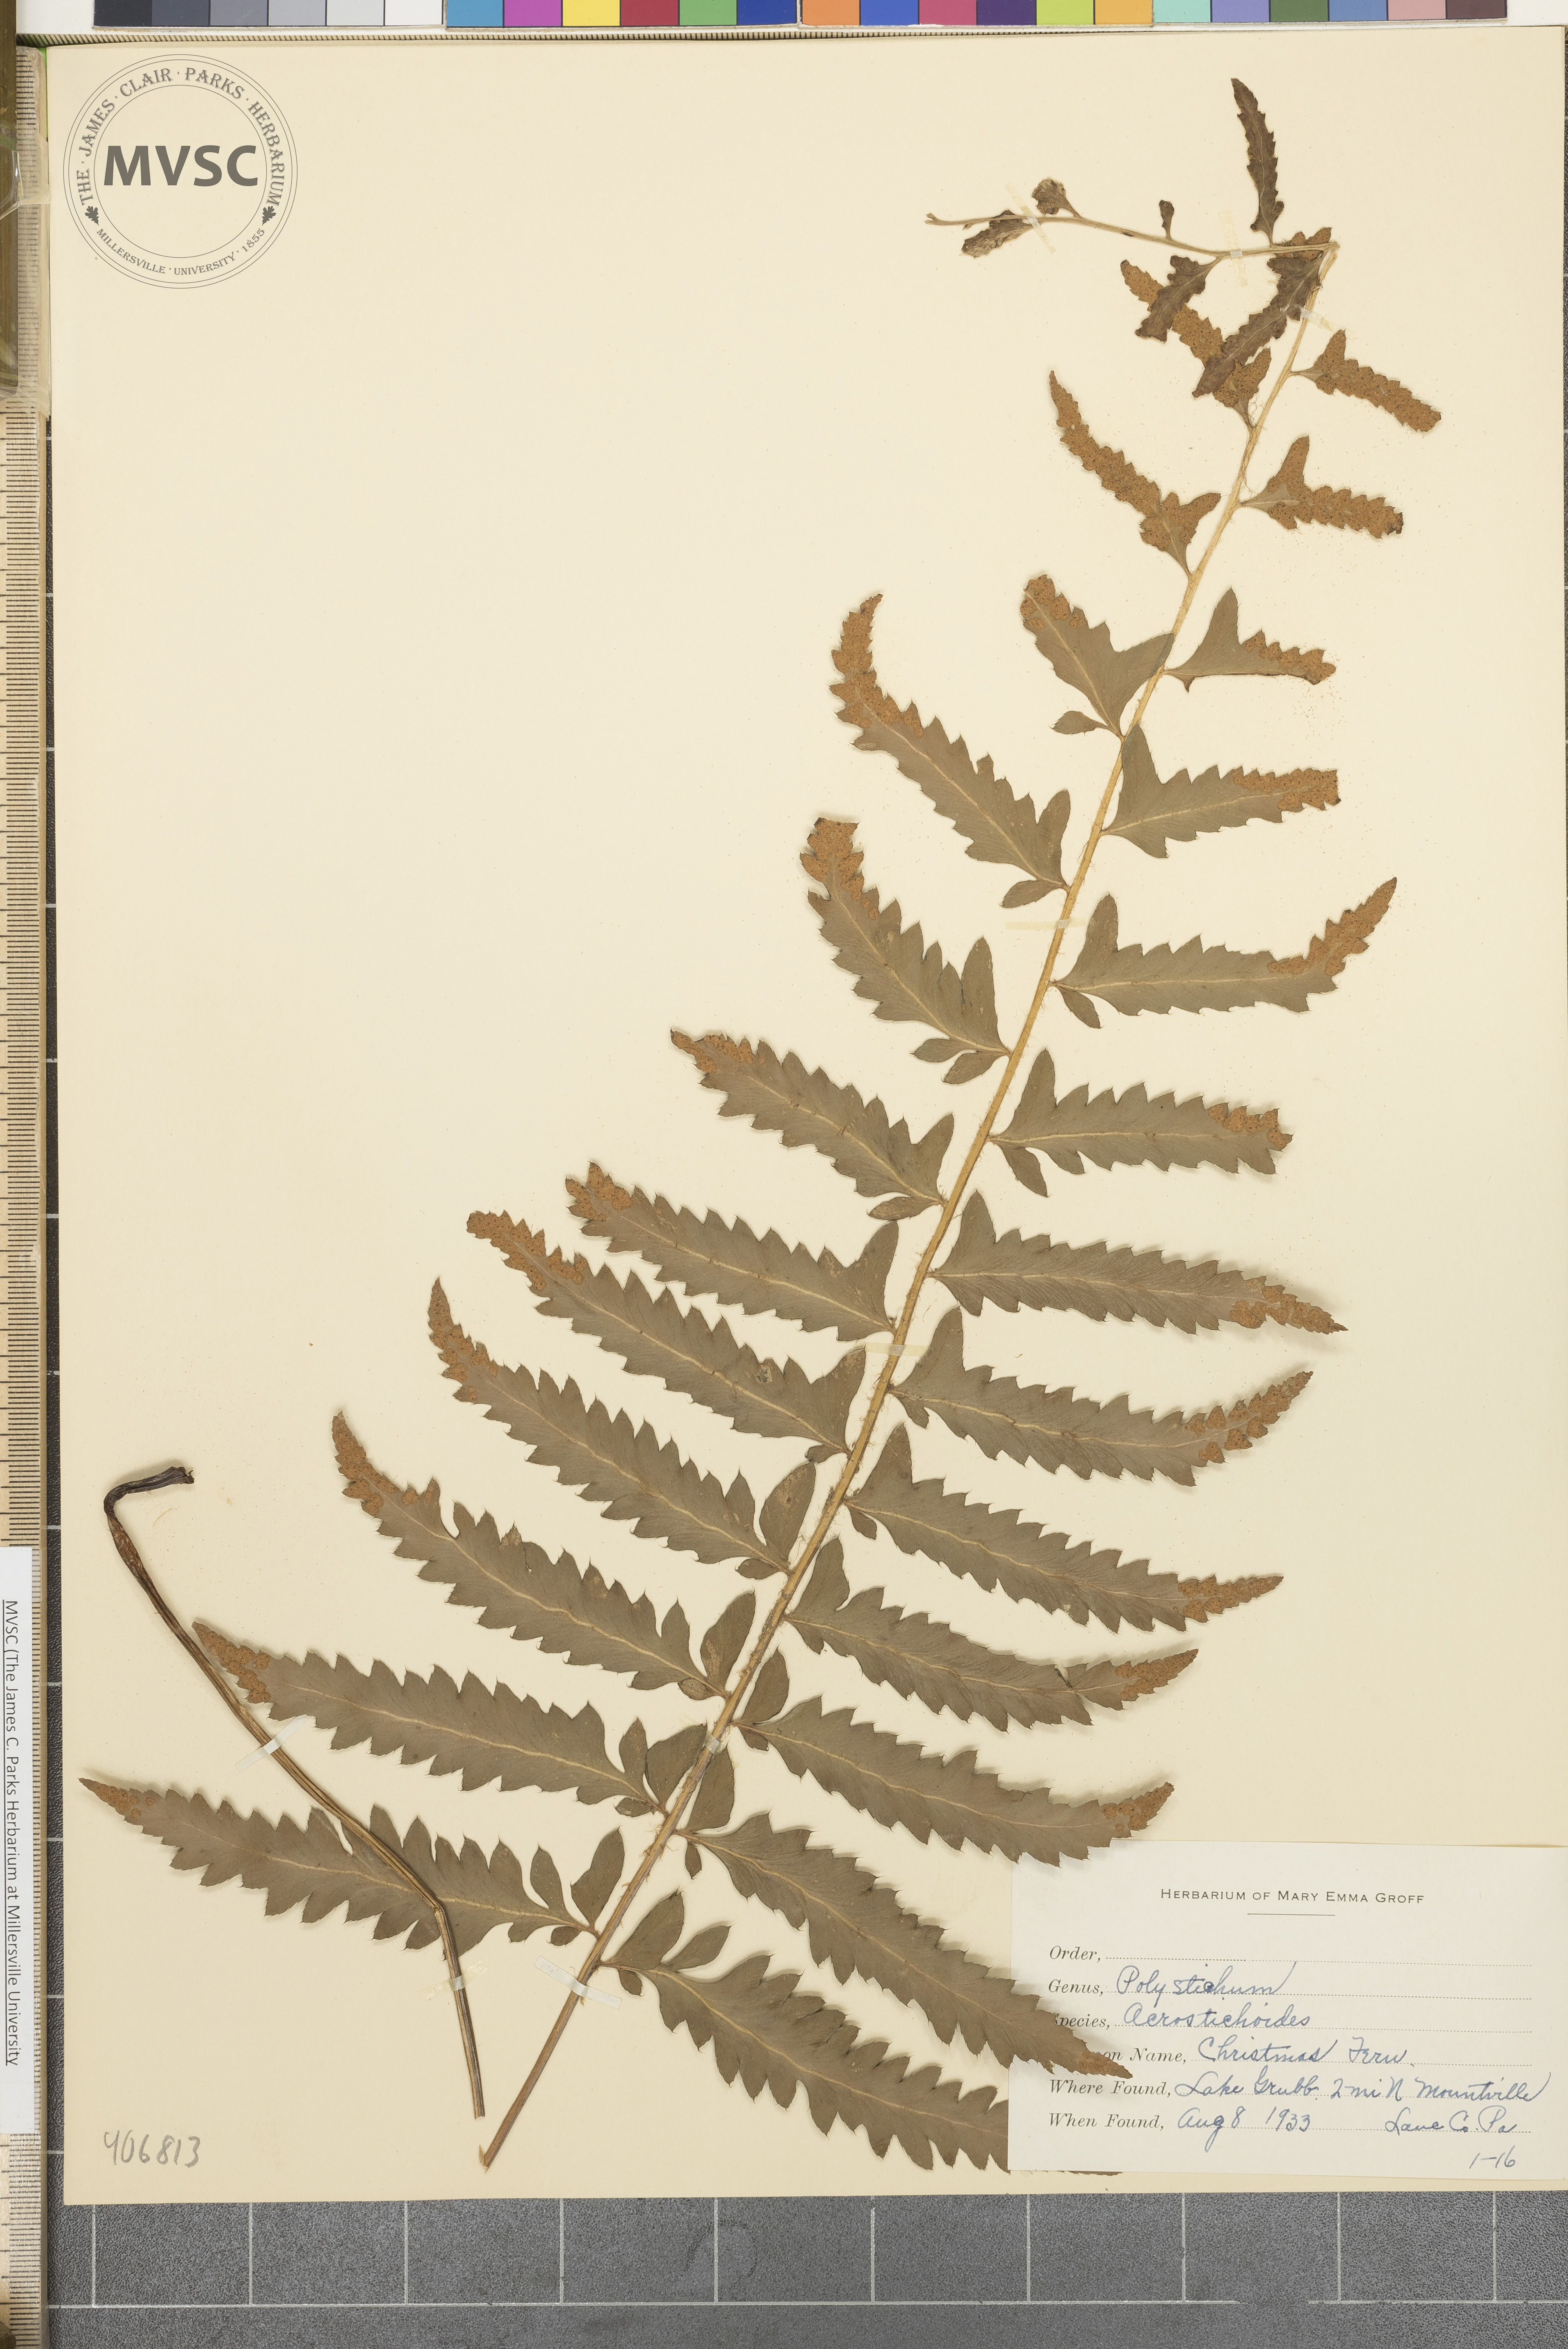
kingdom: Plantae
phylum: Tracheophyta
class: Polypodiopsida
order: Polypodiales
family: Dryopteridaceae
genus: Polystichum
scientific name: Polystichum acrostichoides
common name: Christmas fern
